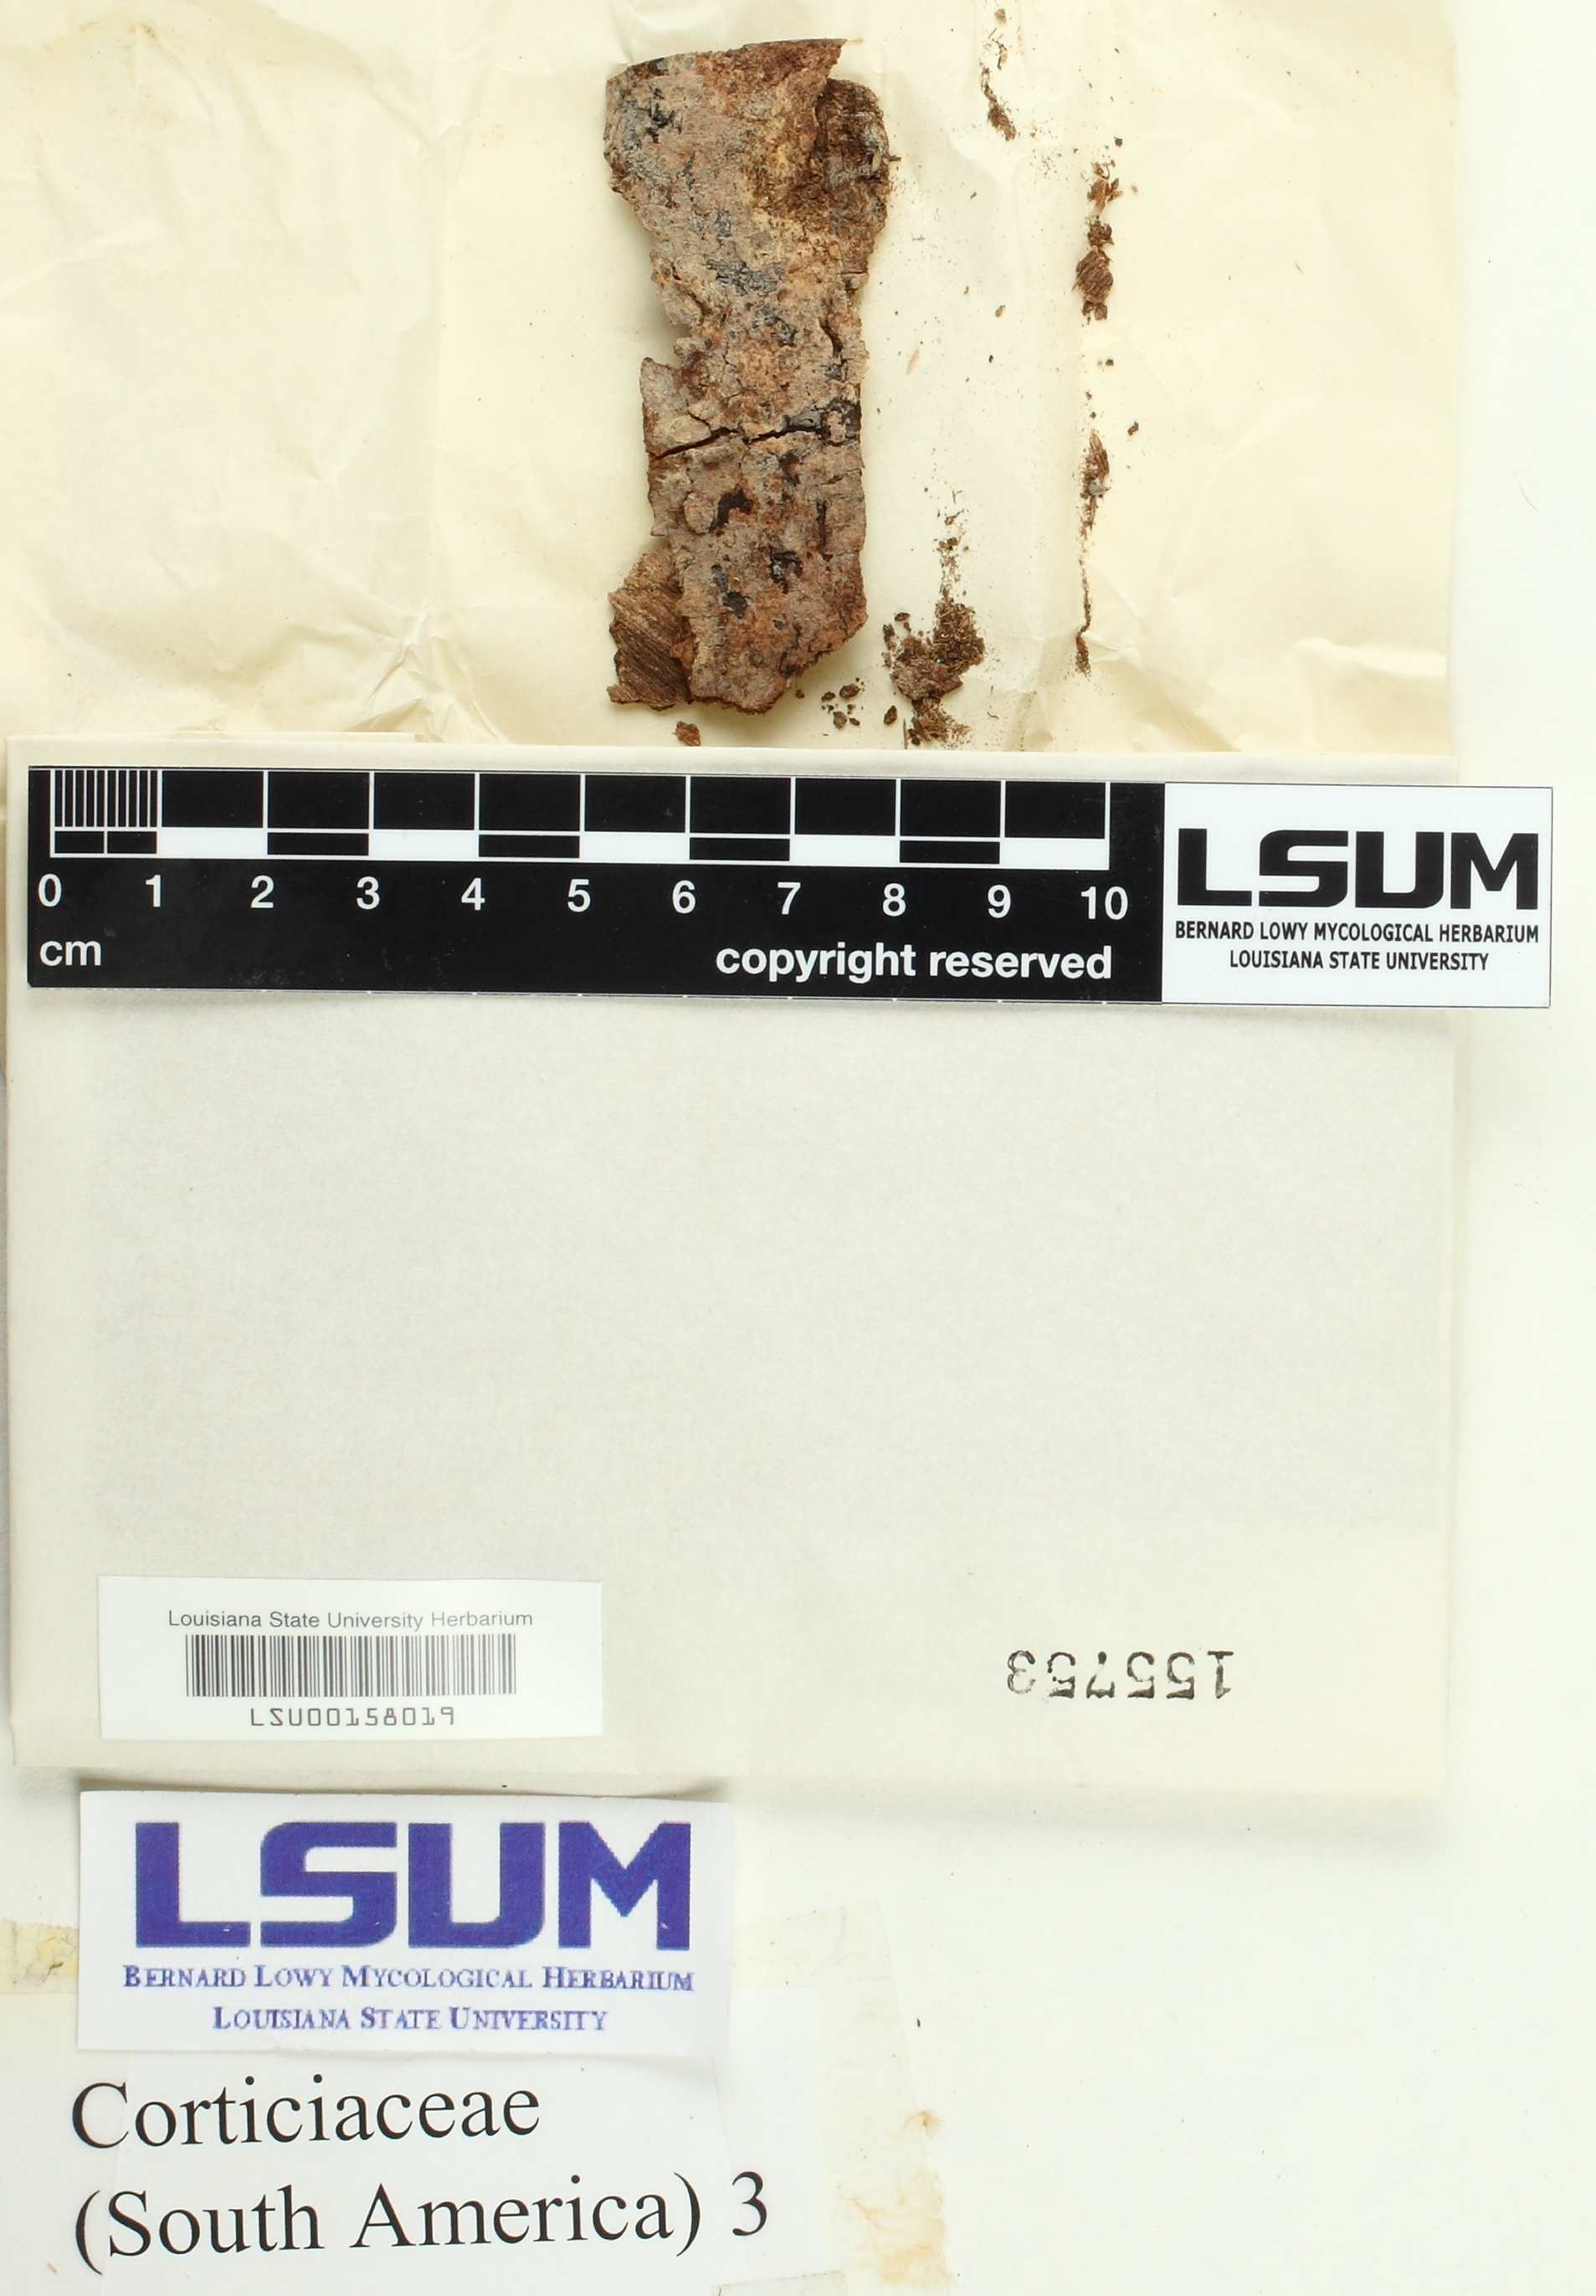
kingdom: Fungi
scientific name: Fungi
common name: Fungi
